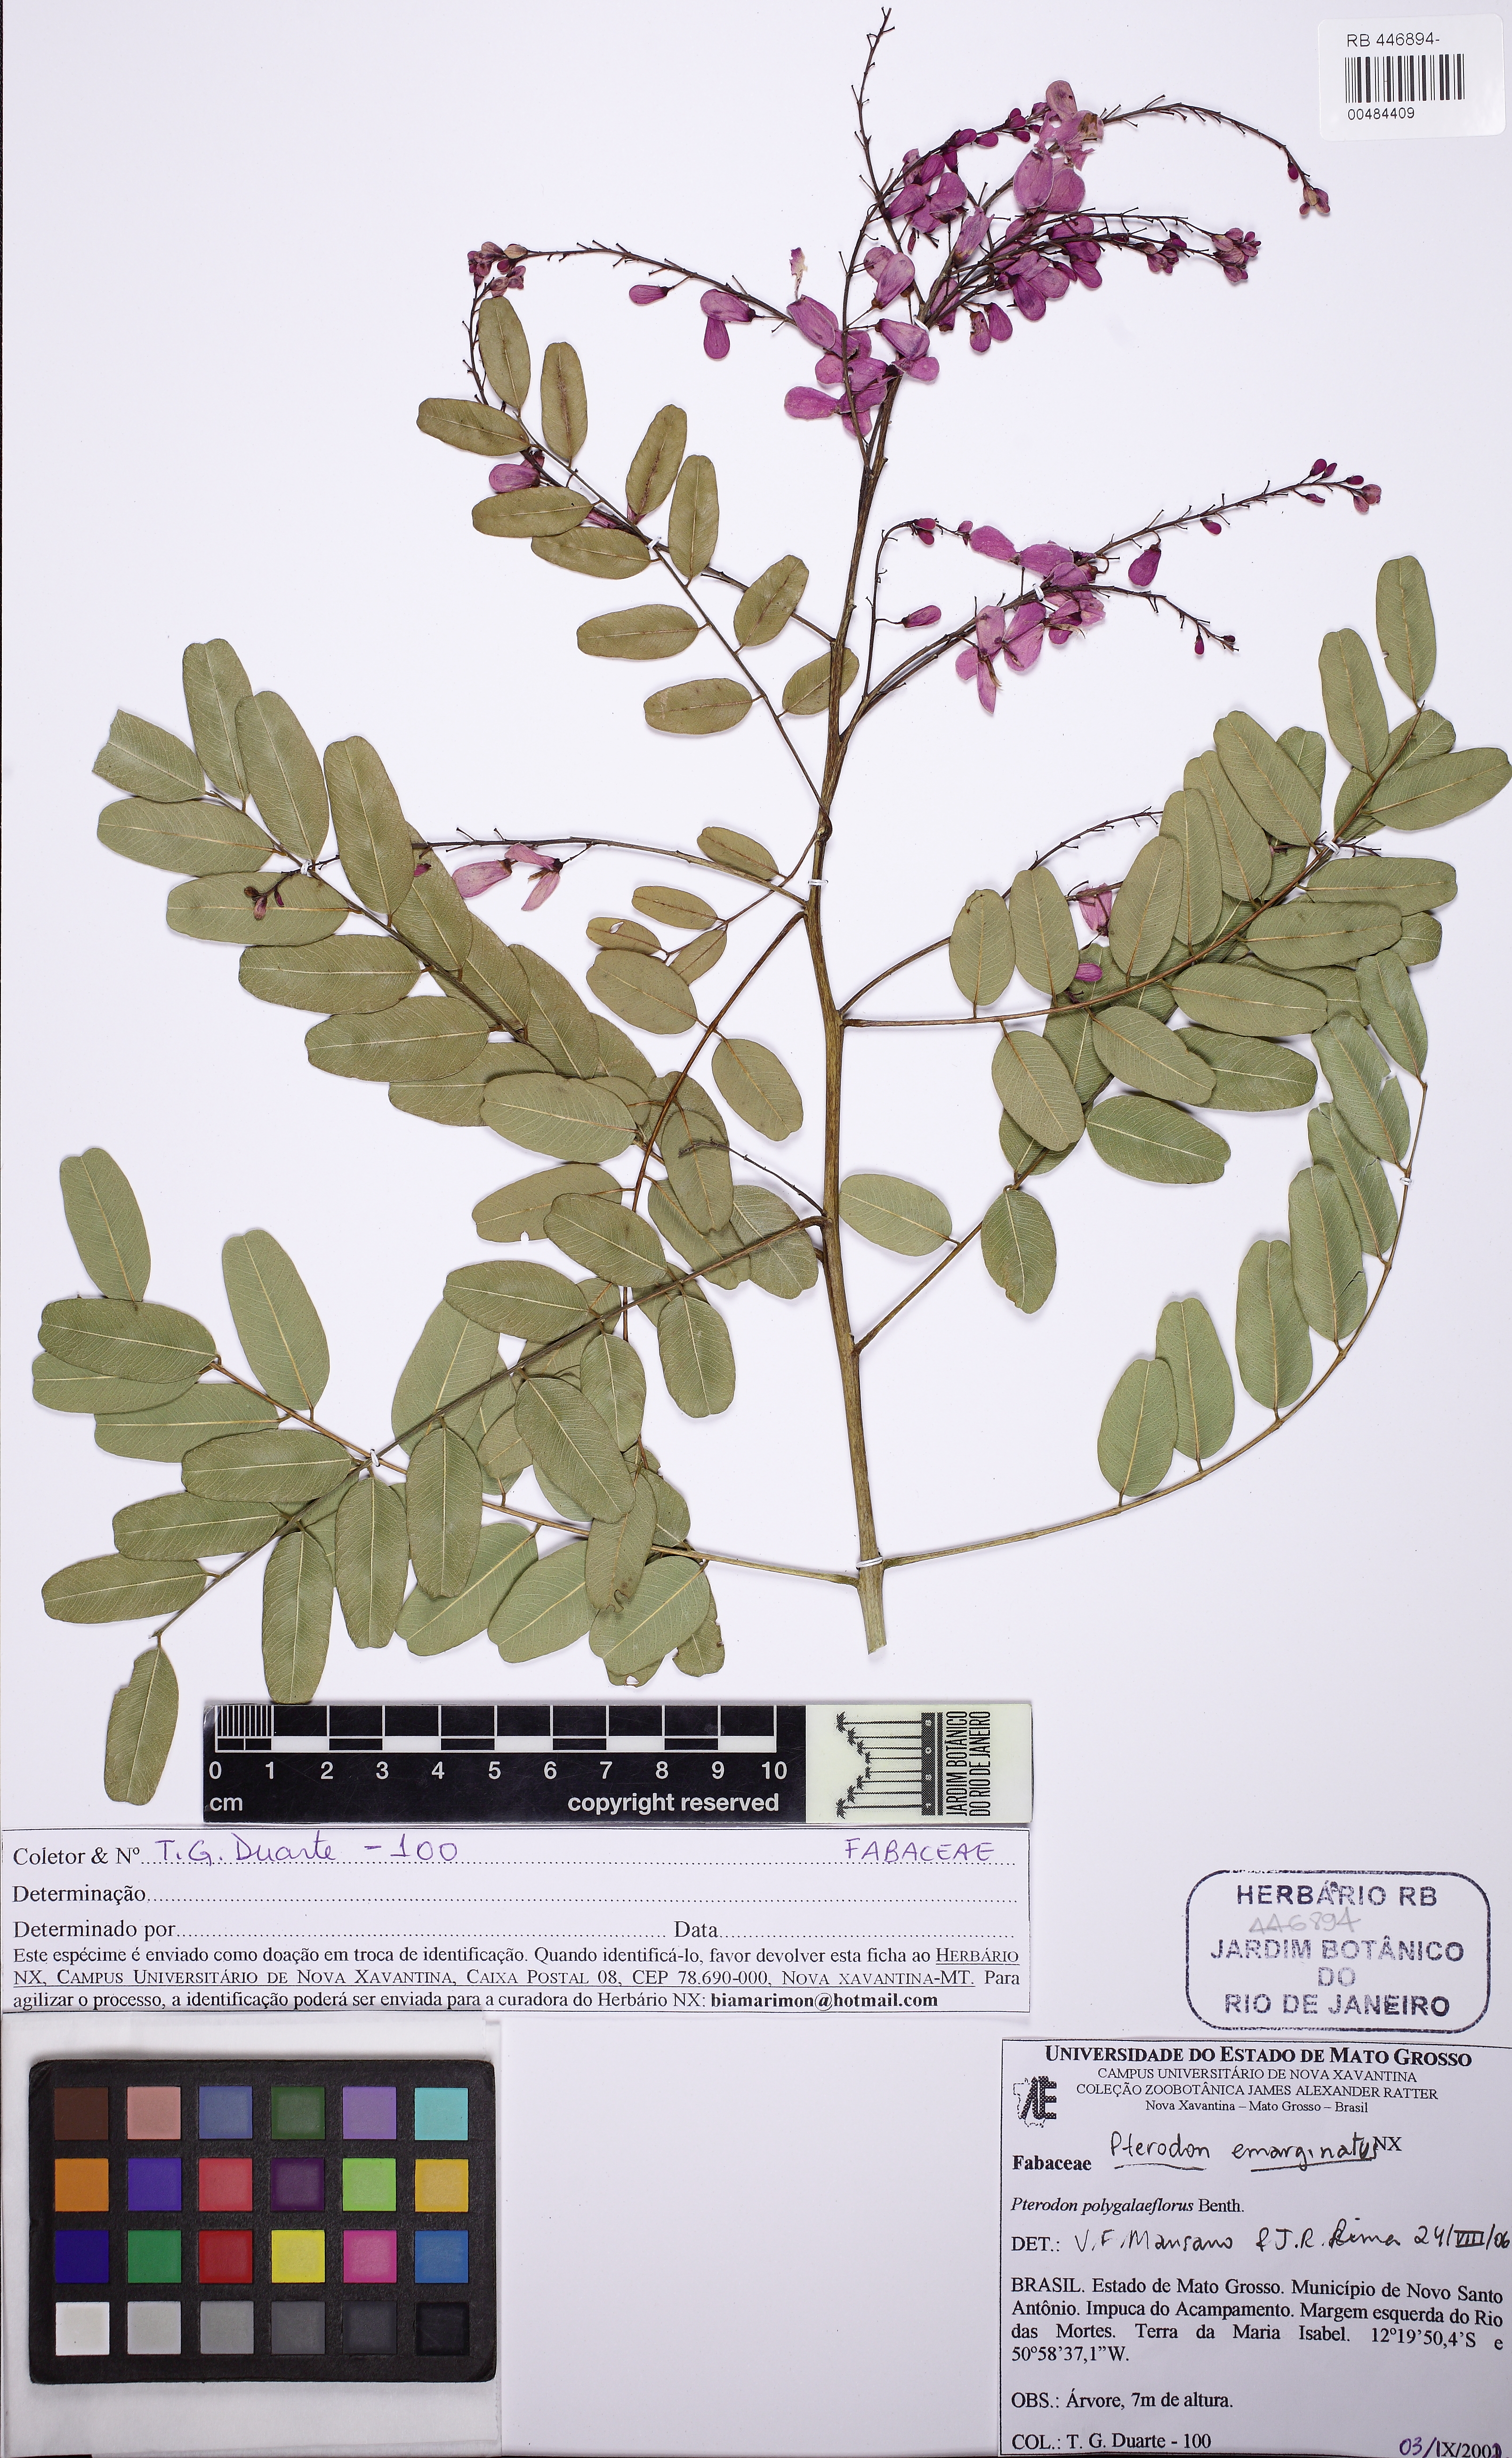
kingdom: Plantae
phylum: Tracheophyta
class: Magnoliopsida
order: Fabales
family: Fabaceae
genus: Pterodon
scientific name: Pterodon emarginatus
